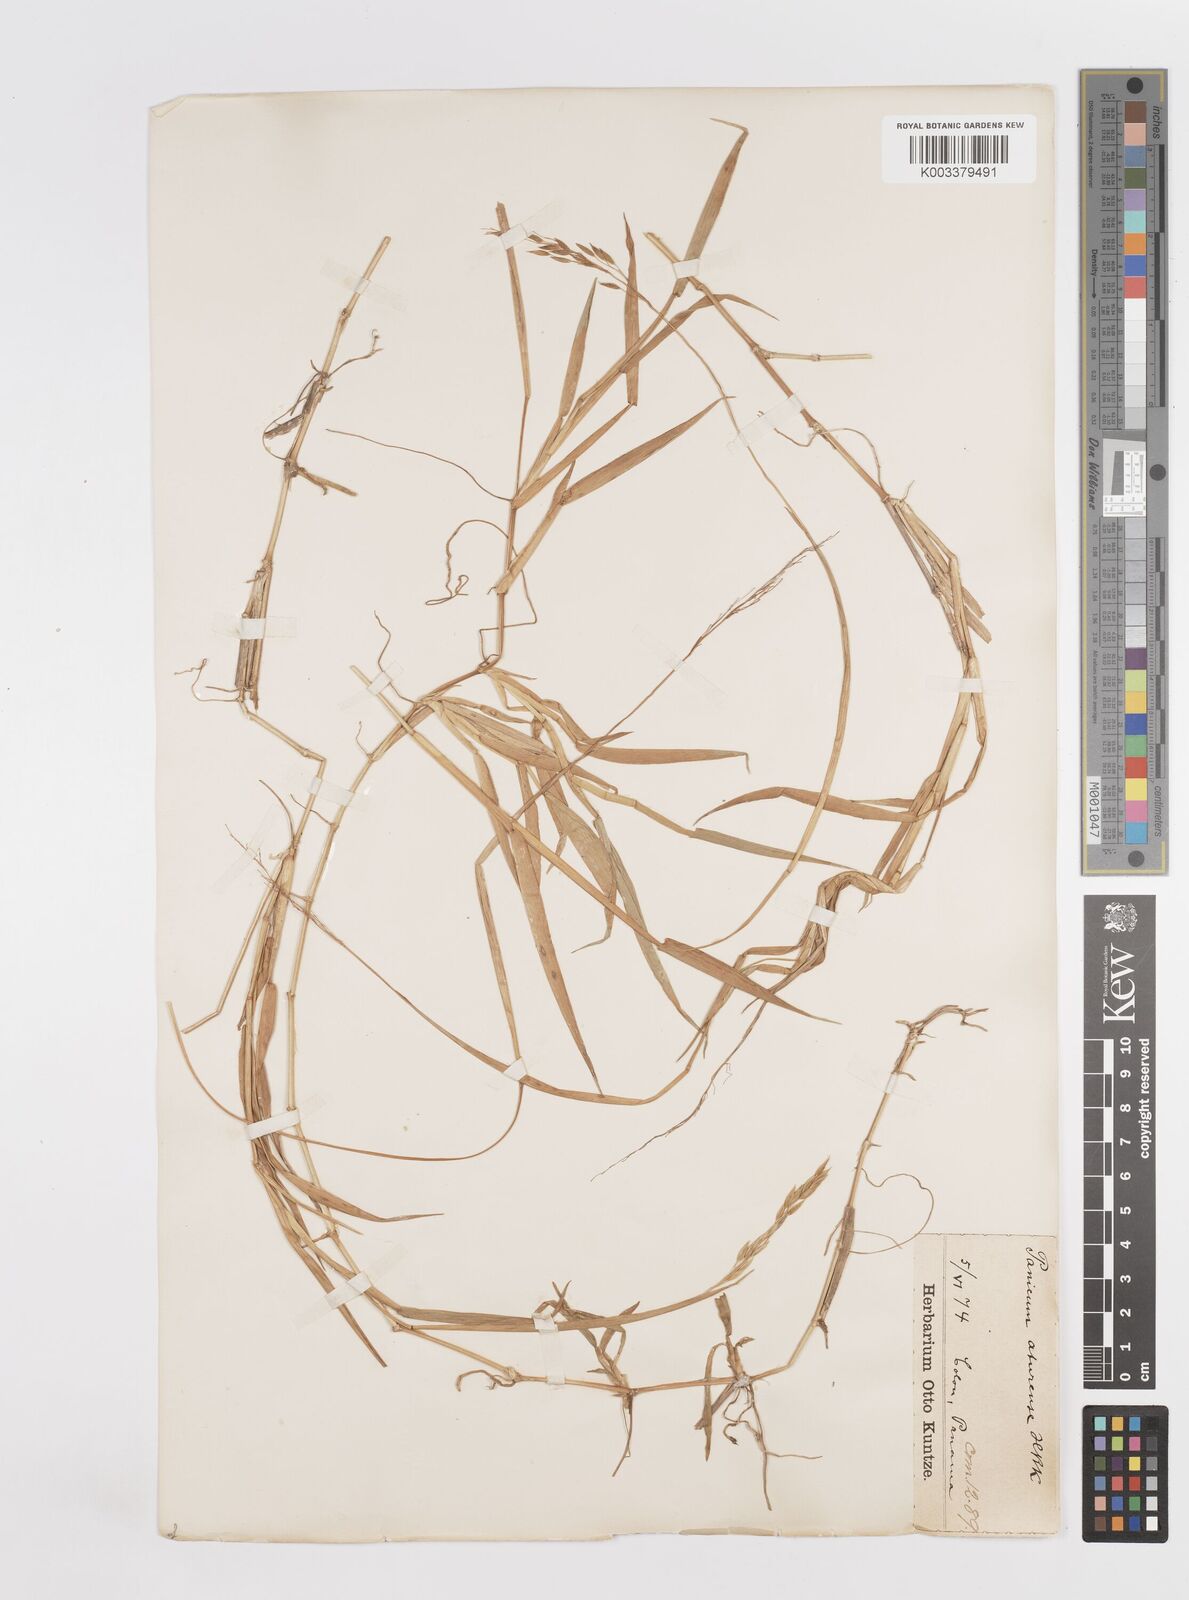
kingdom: Plantae
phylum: Tracheophyta
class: Liliopsida
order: Poales
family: Poaceae
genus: Homolepis
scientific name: Homolepis aturensis
